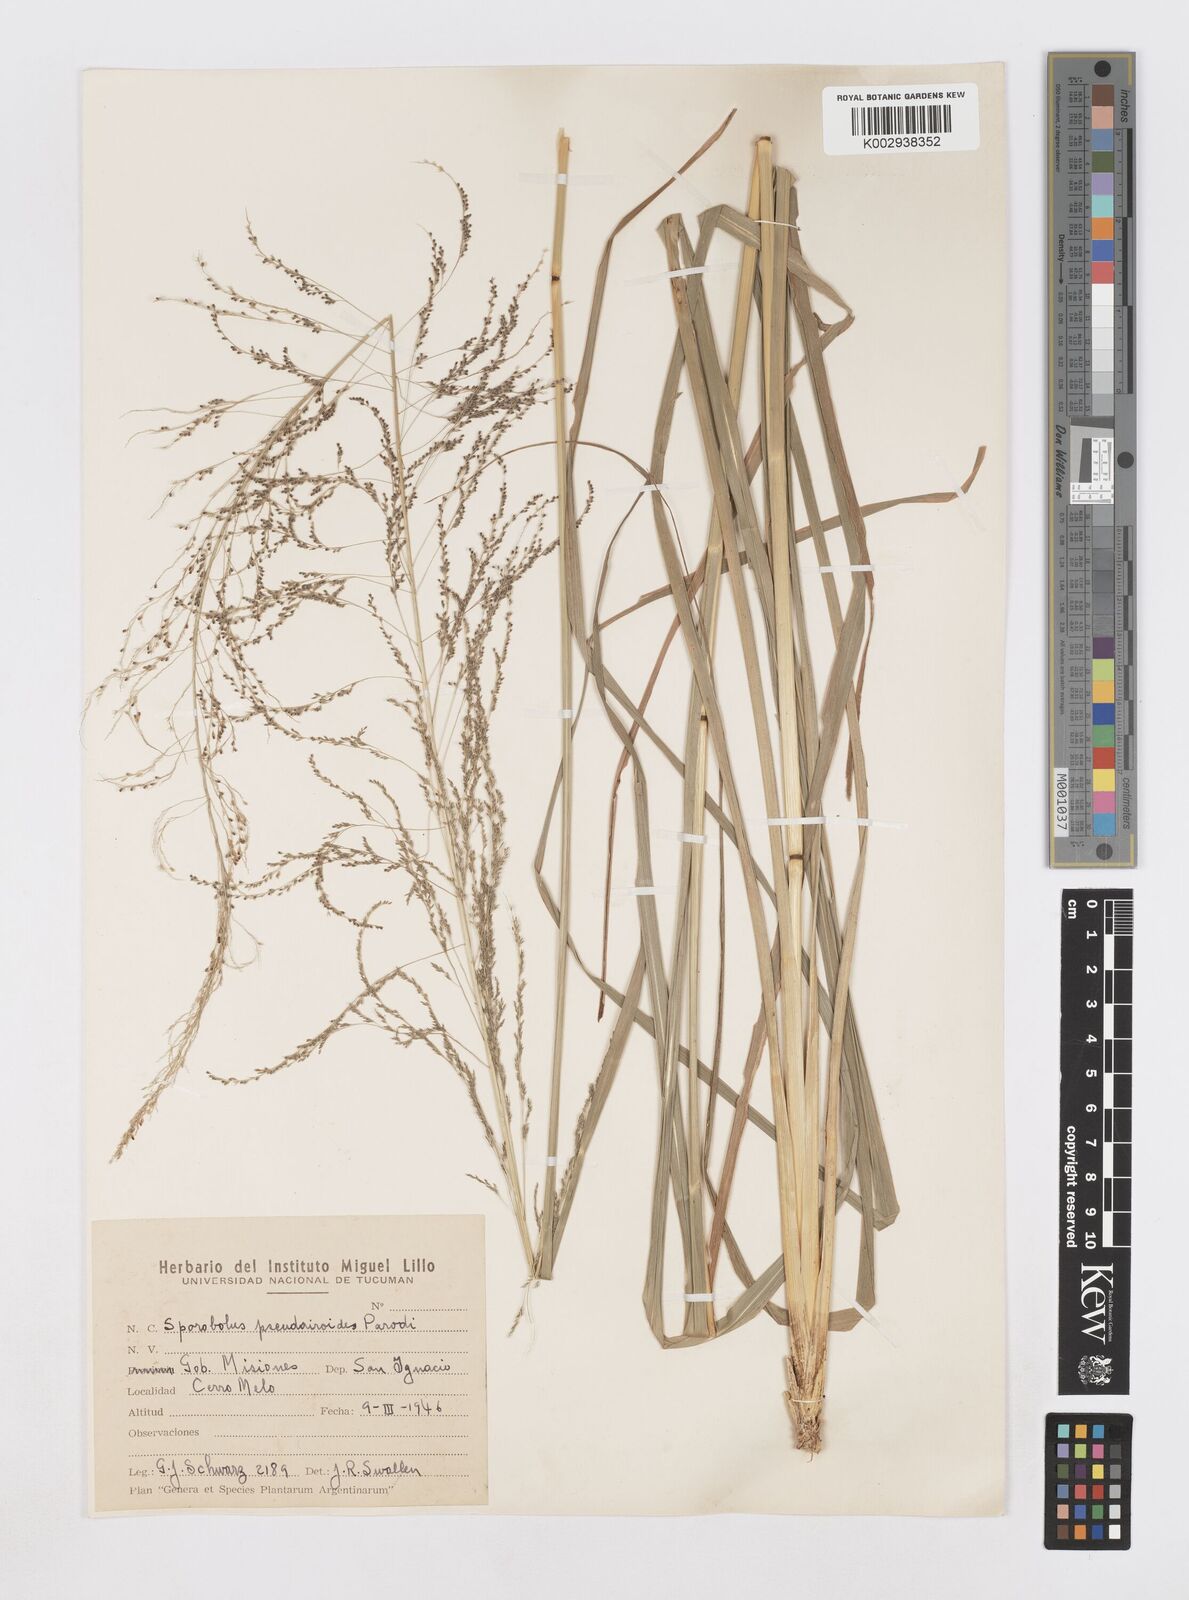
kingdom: Plantae
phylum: Tracheophyta
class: Liliopsida
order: Poales
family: Poaceae
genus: Sporobolus
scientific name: Sporobolus pseudairoides
